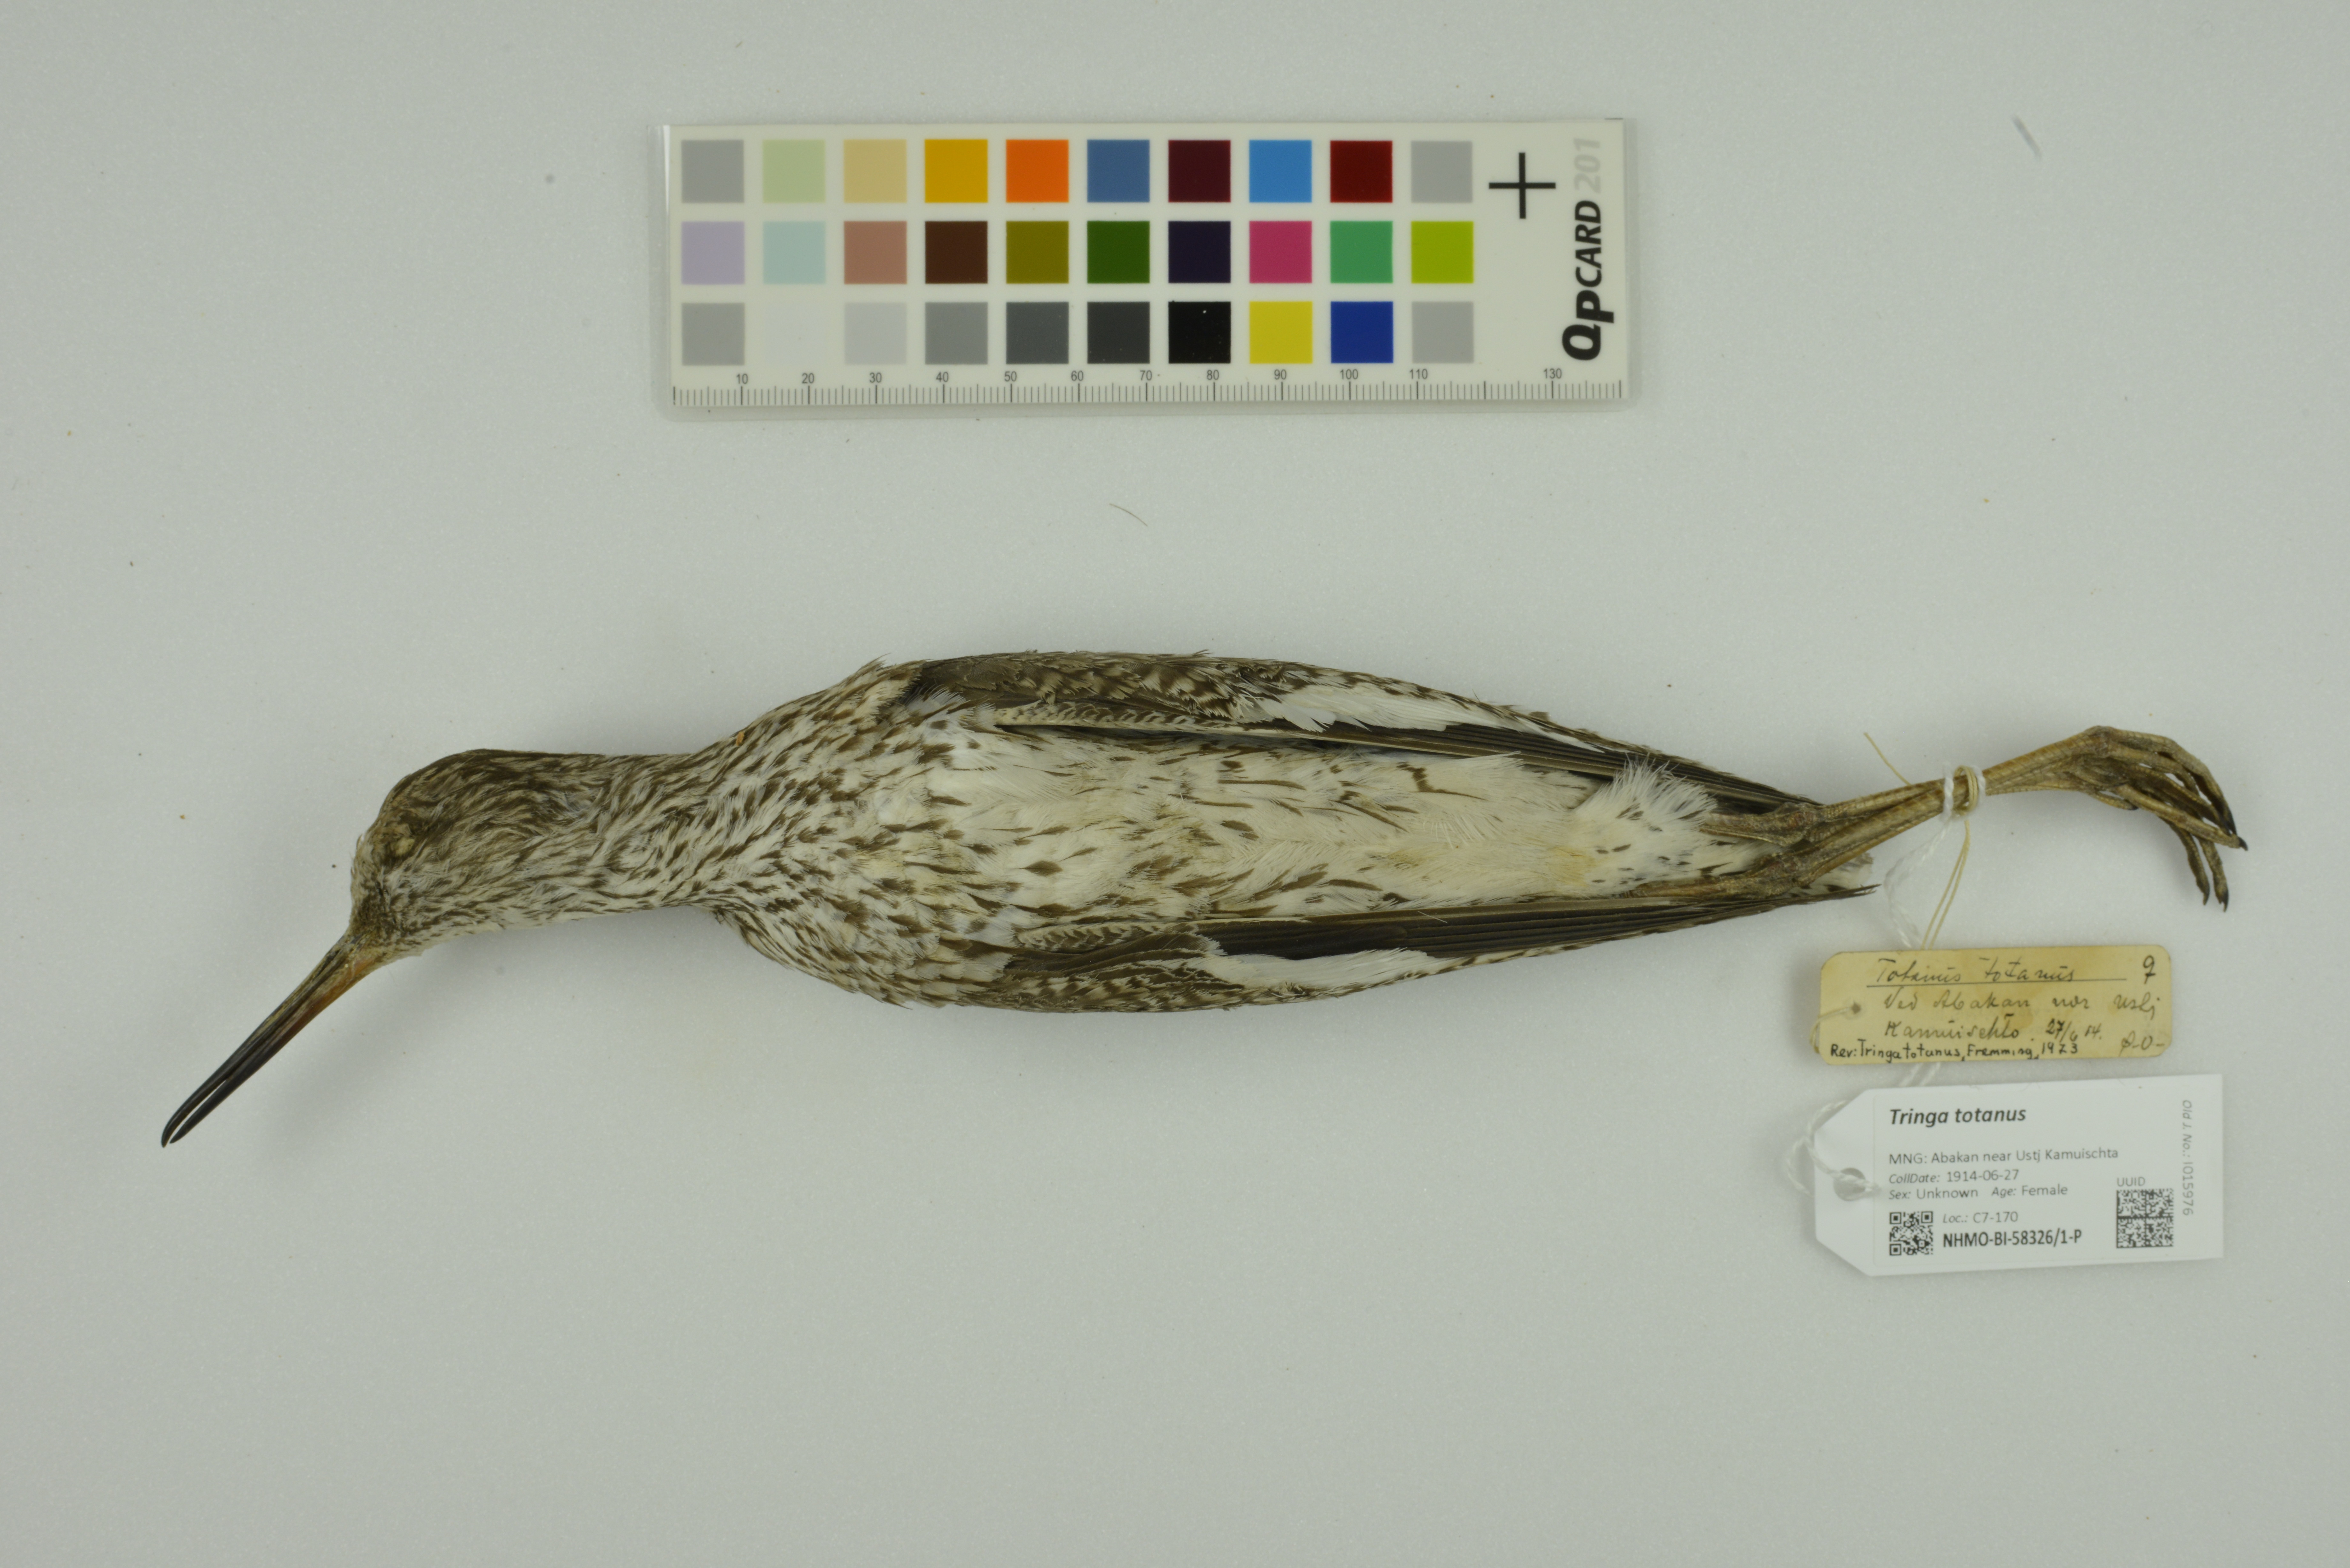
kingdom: Animalia
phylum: Chordata
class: Aves
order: Charadriiformes
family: Scolopacidae
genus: Tringa
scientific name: Tringa totanus
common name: Common redshank
